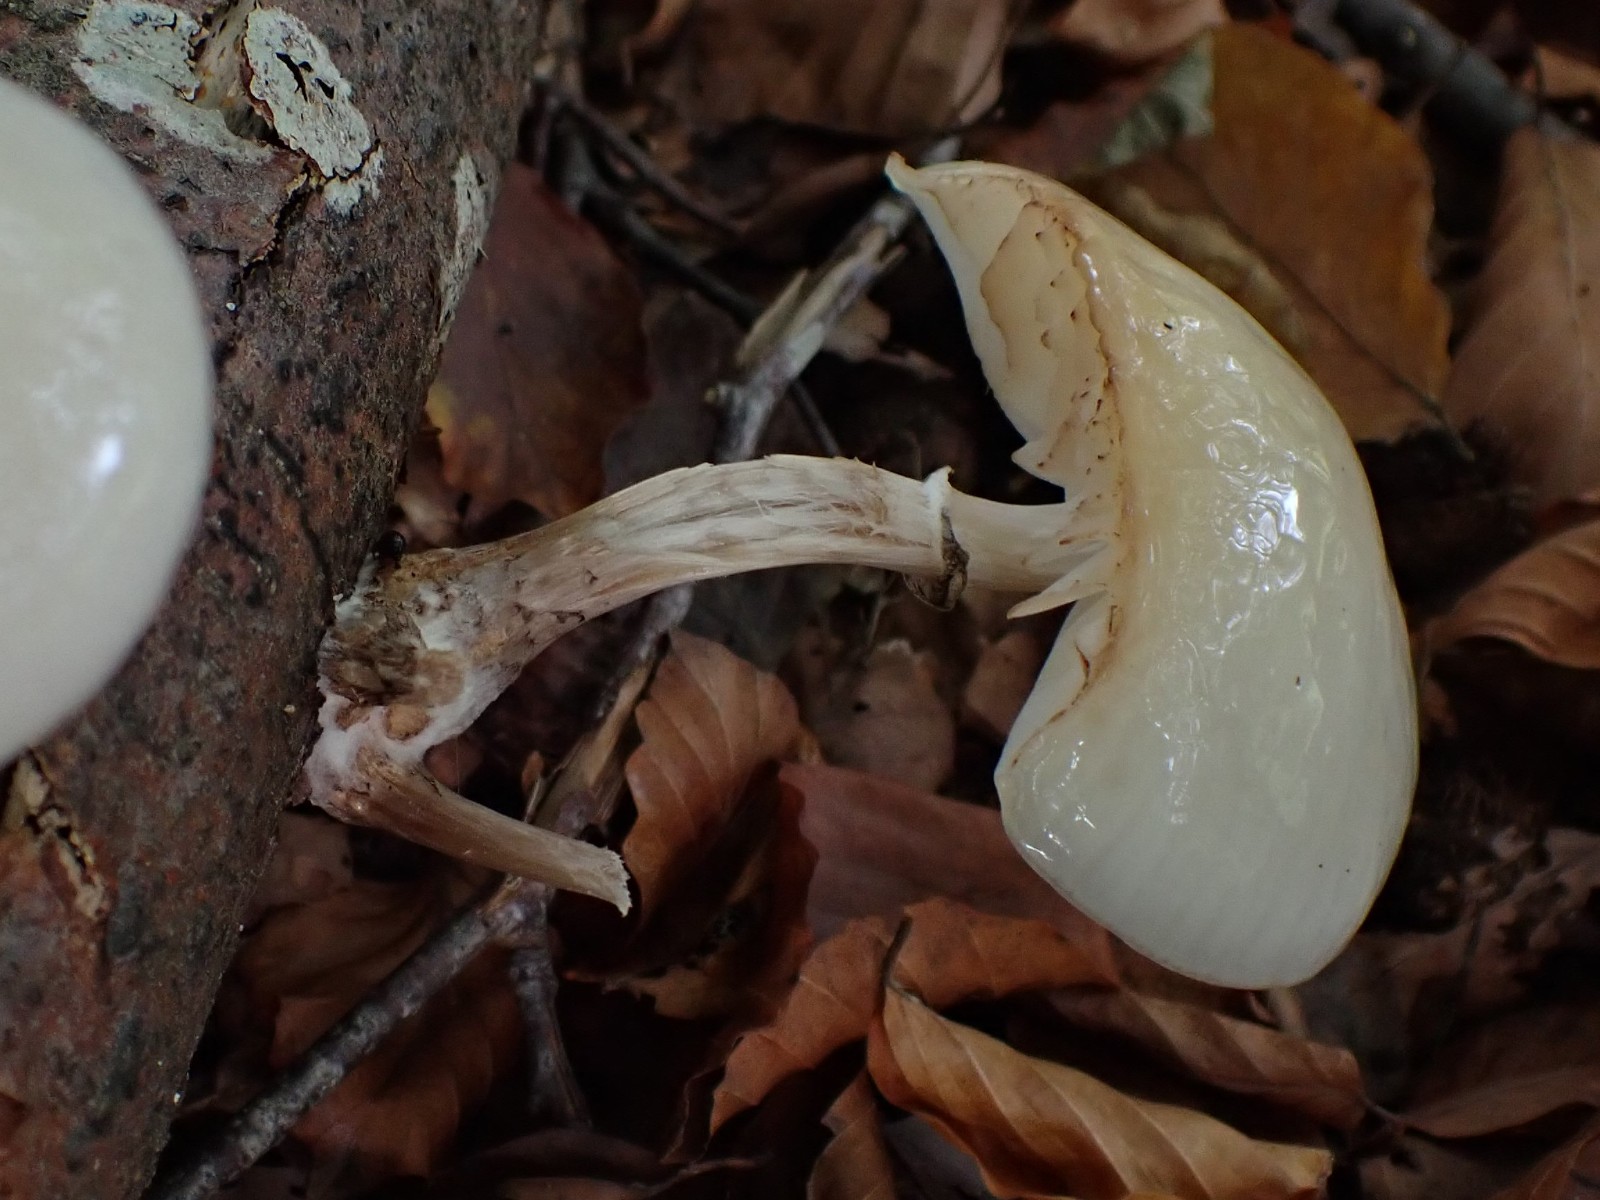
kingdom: Fungi
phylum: Basidiomycota
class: Agaricomycetes
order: Agaricales
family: Physalacriaceae
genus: Mucidula
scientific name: Mucidula mucida
